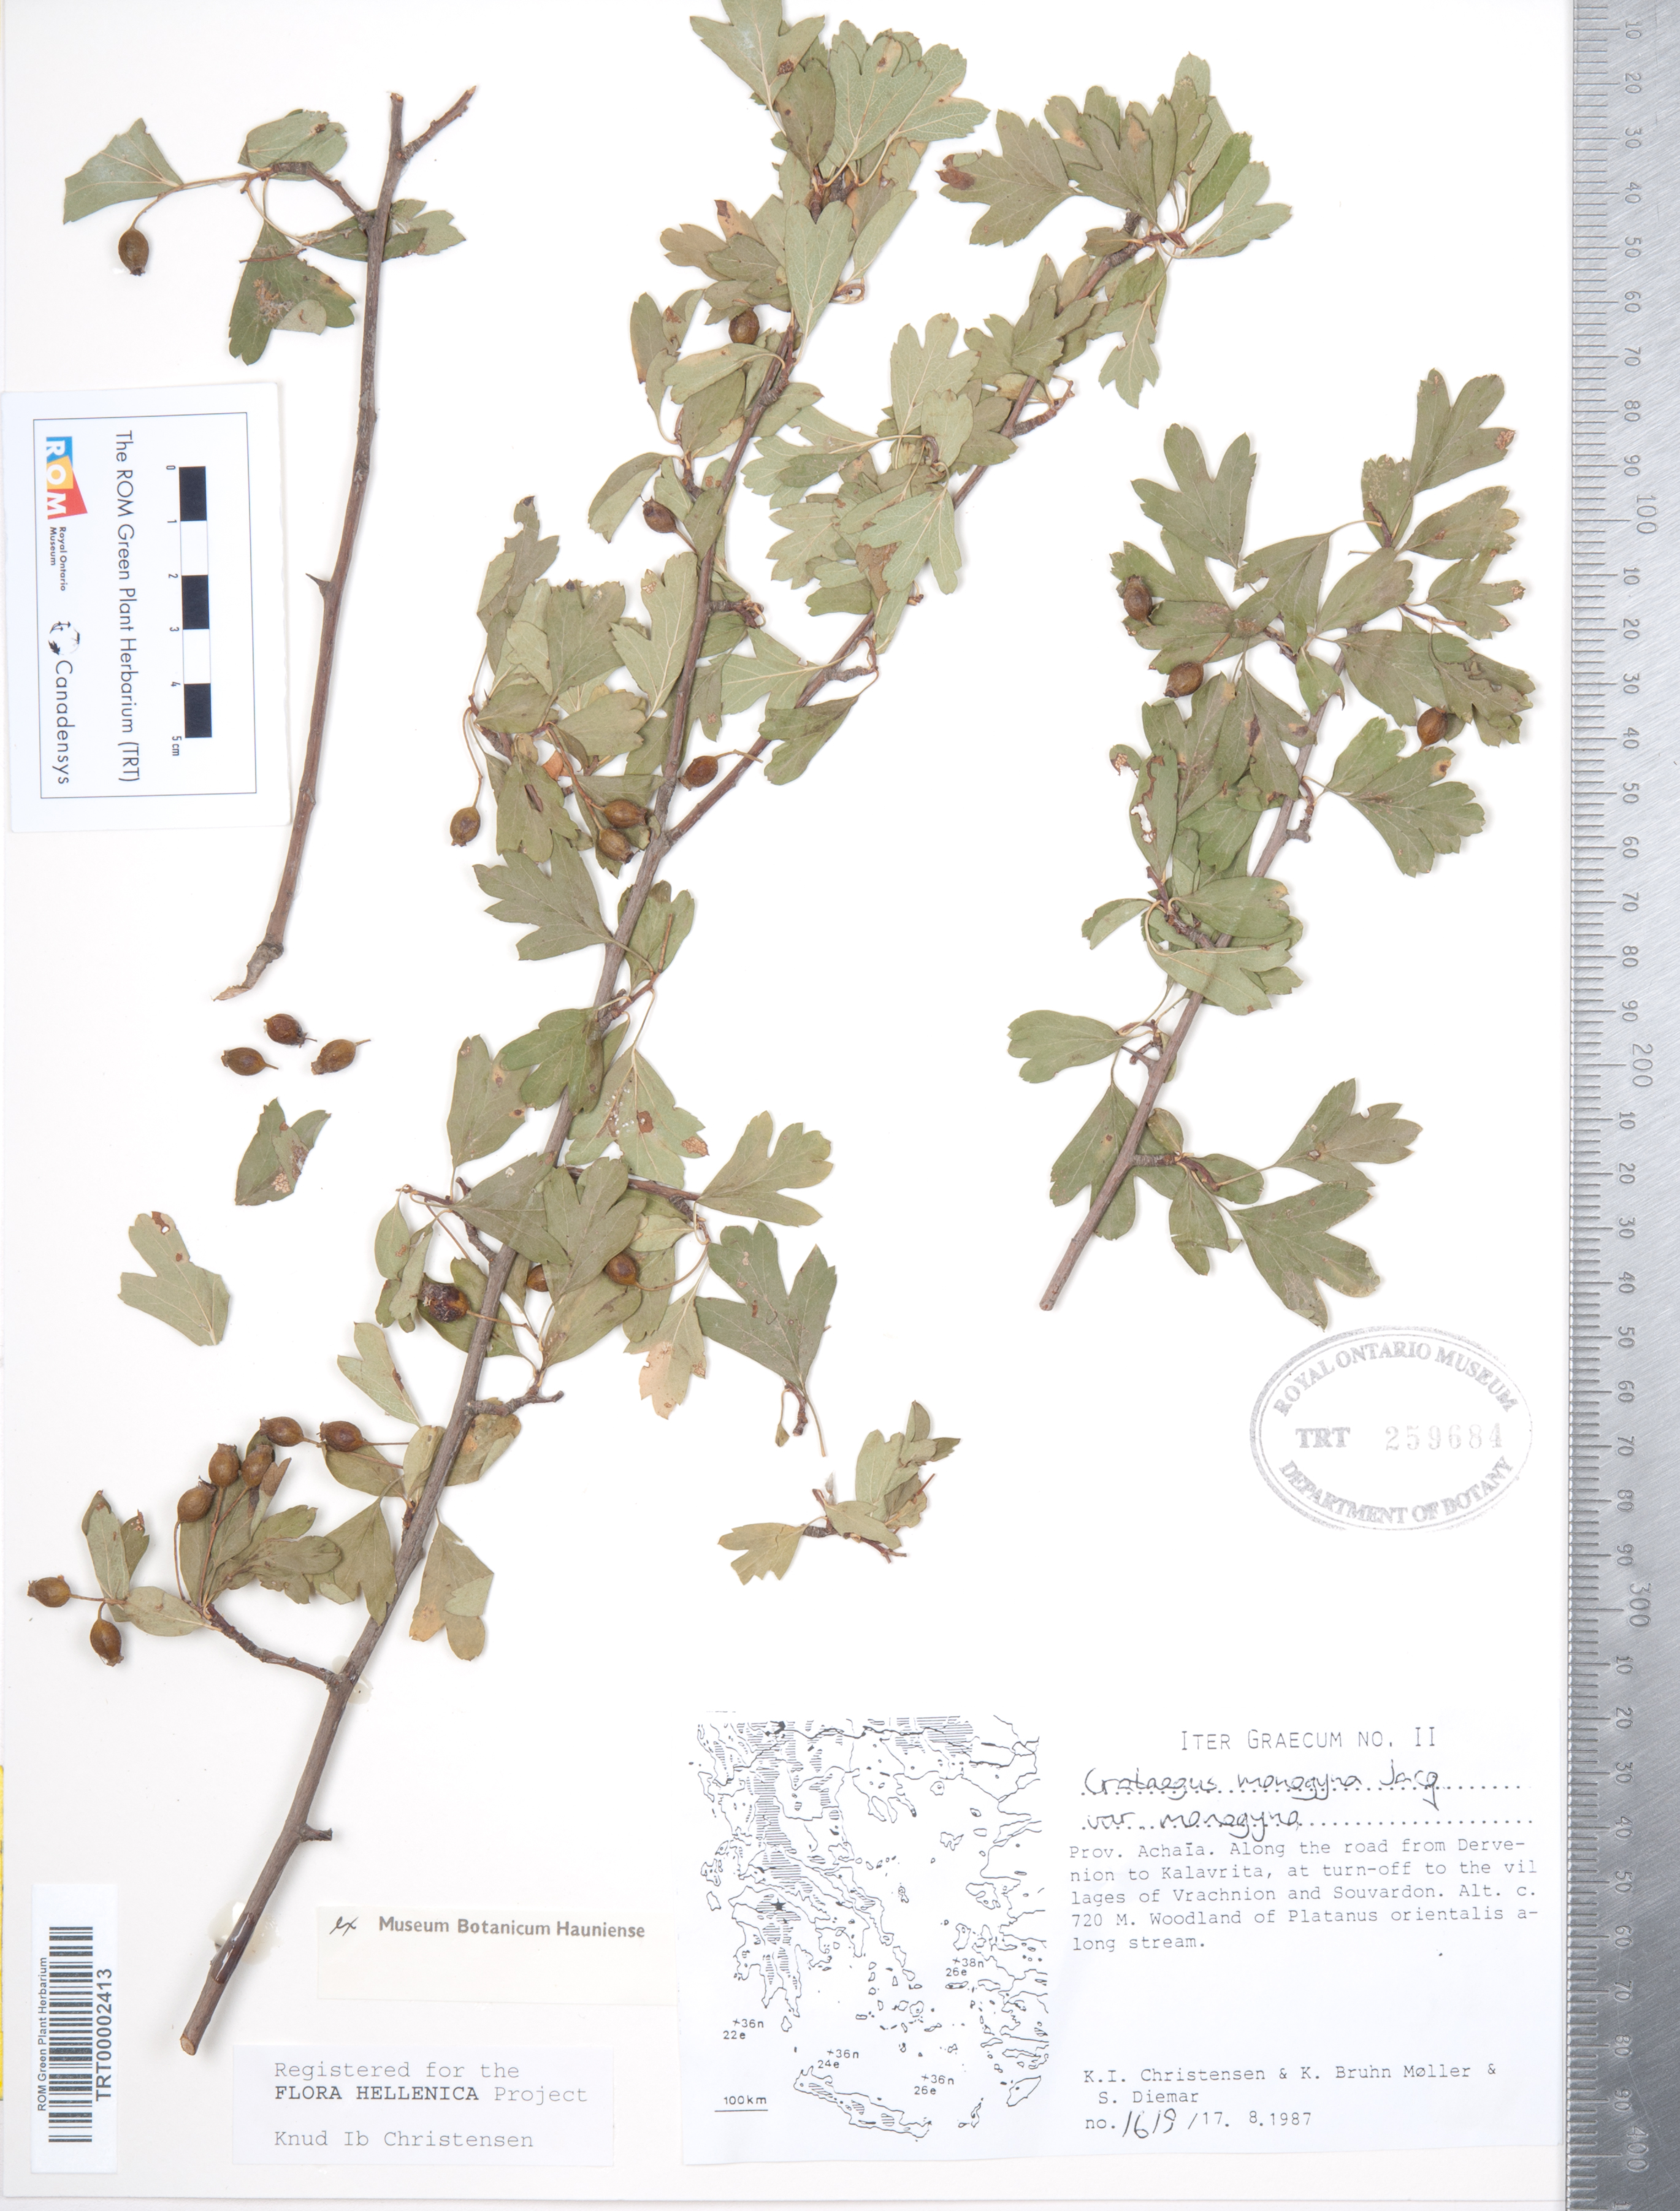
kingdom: Plantae
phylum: Tracheophyta
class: Magnoliopsida
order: Rosales
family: Rosaceae
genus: Crataegus
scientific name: Crataegus monogyna
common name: Hawthorn
